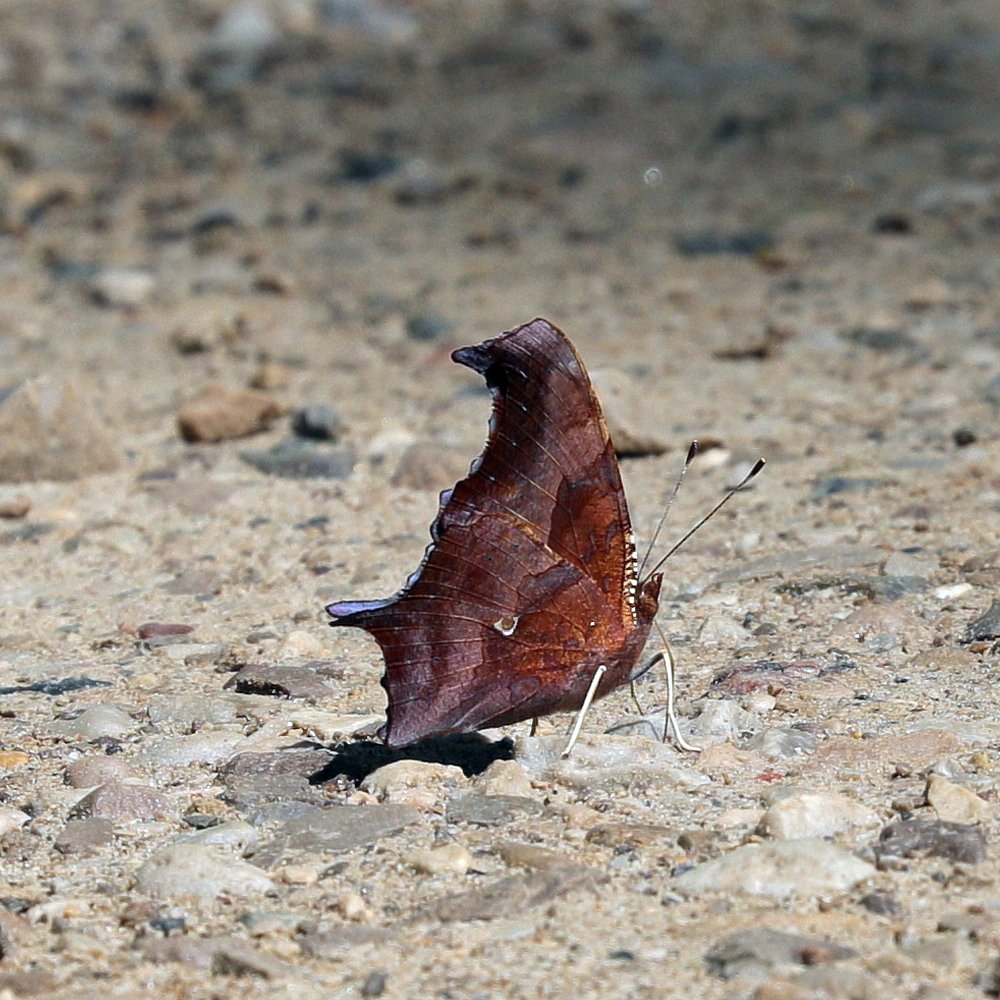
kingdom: Animalia
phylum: Arthropoda
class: Insecta
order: Lepidoptera
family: Nymphalidae
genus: Polygonia
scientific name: Polygonia interrogationis
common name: Question Mark
